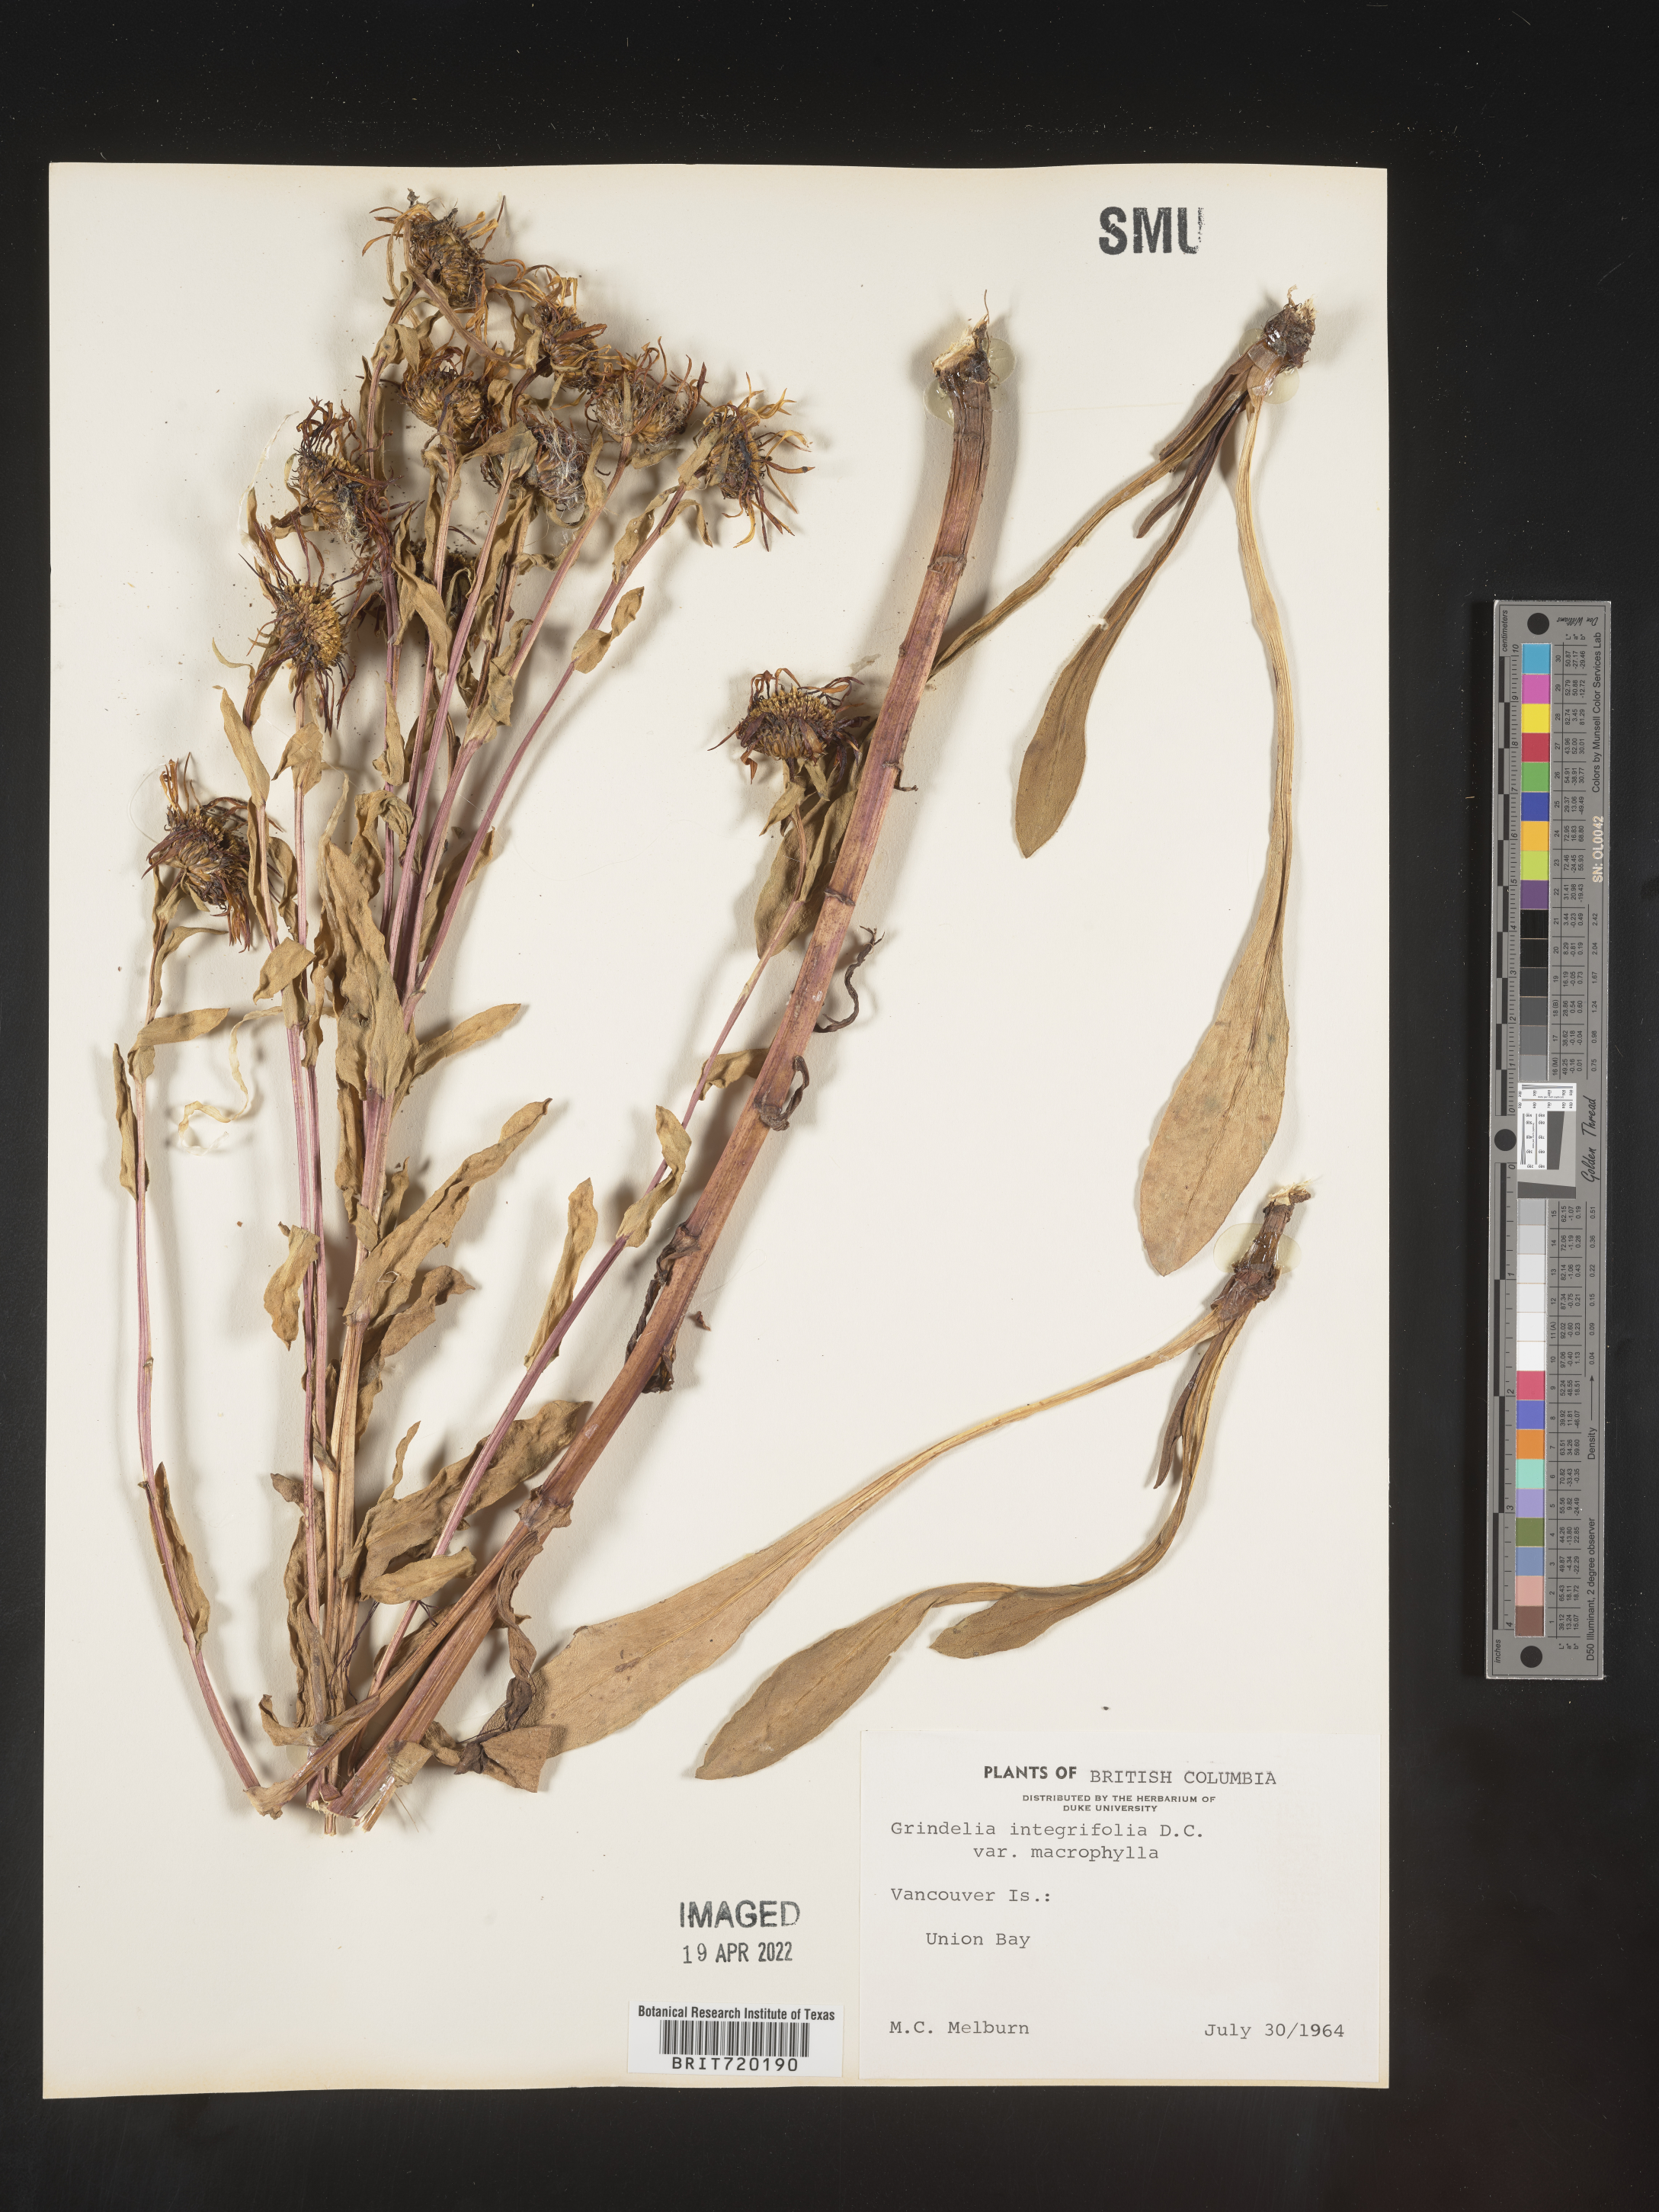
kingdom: Plantae
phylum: Tracheophyta
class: Magnoliopsida
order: Asterales
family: Asteraceae
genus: Grindelia
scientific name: Grindelia integrifolia
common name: Puget sound gumweed
